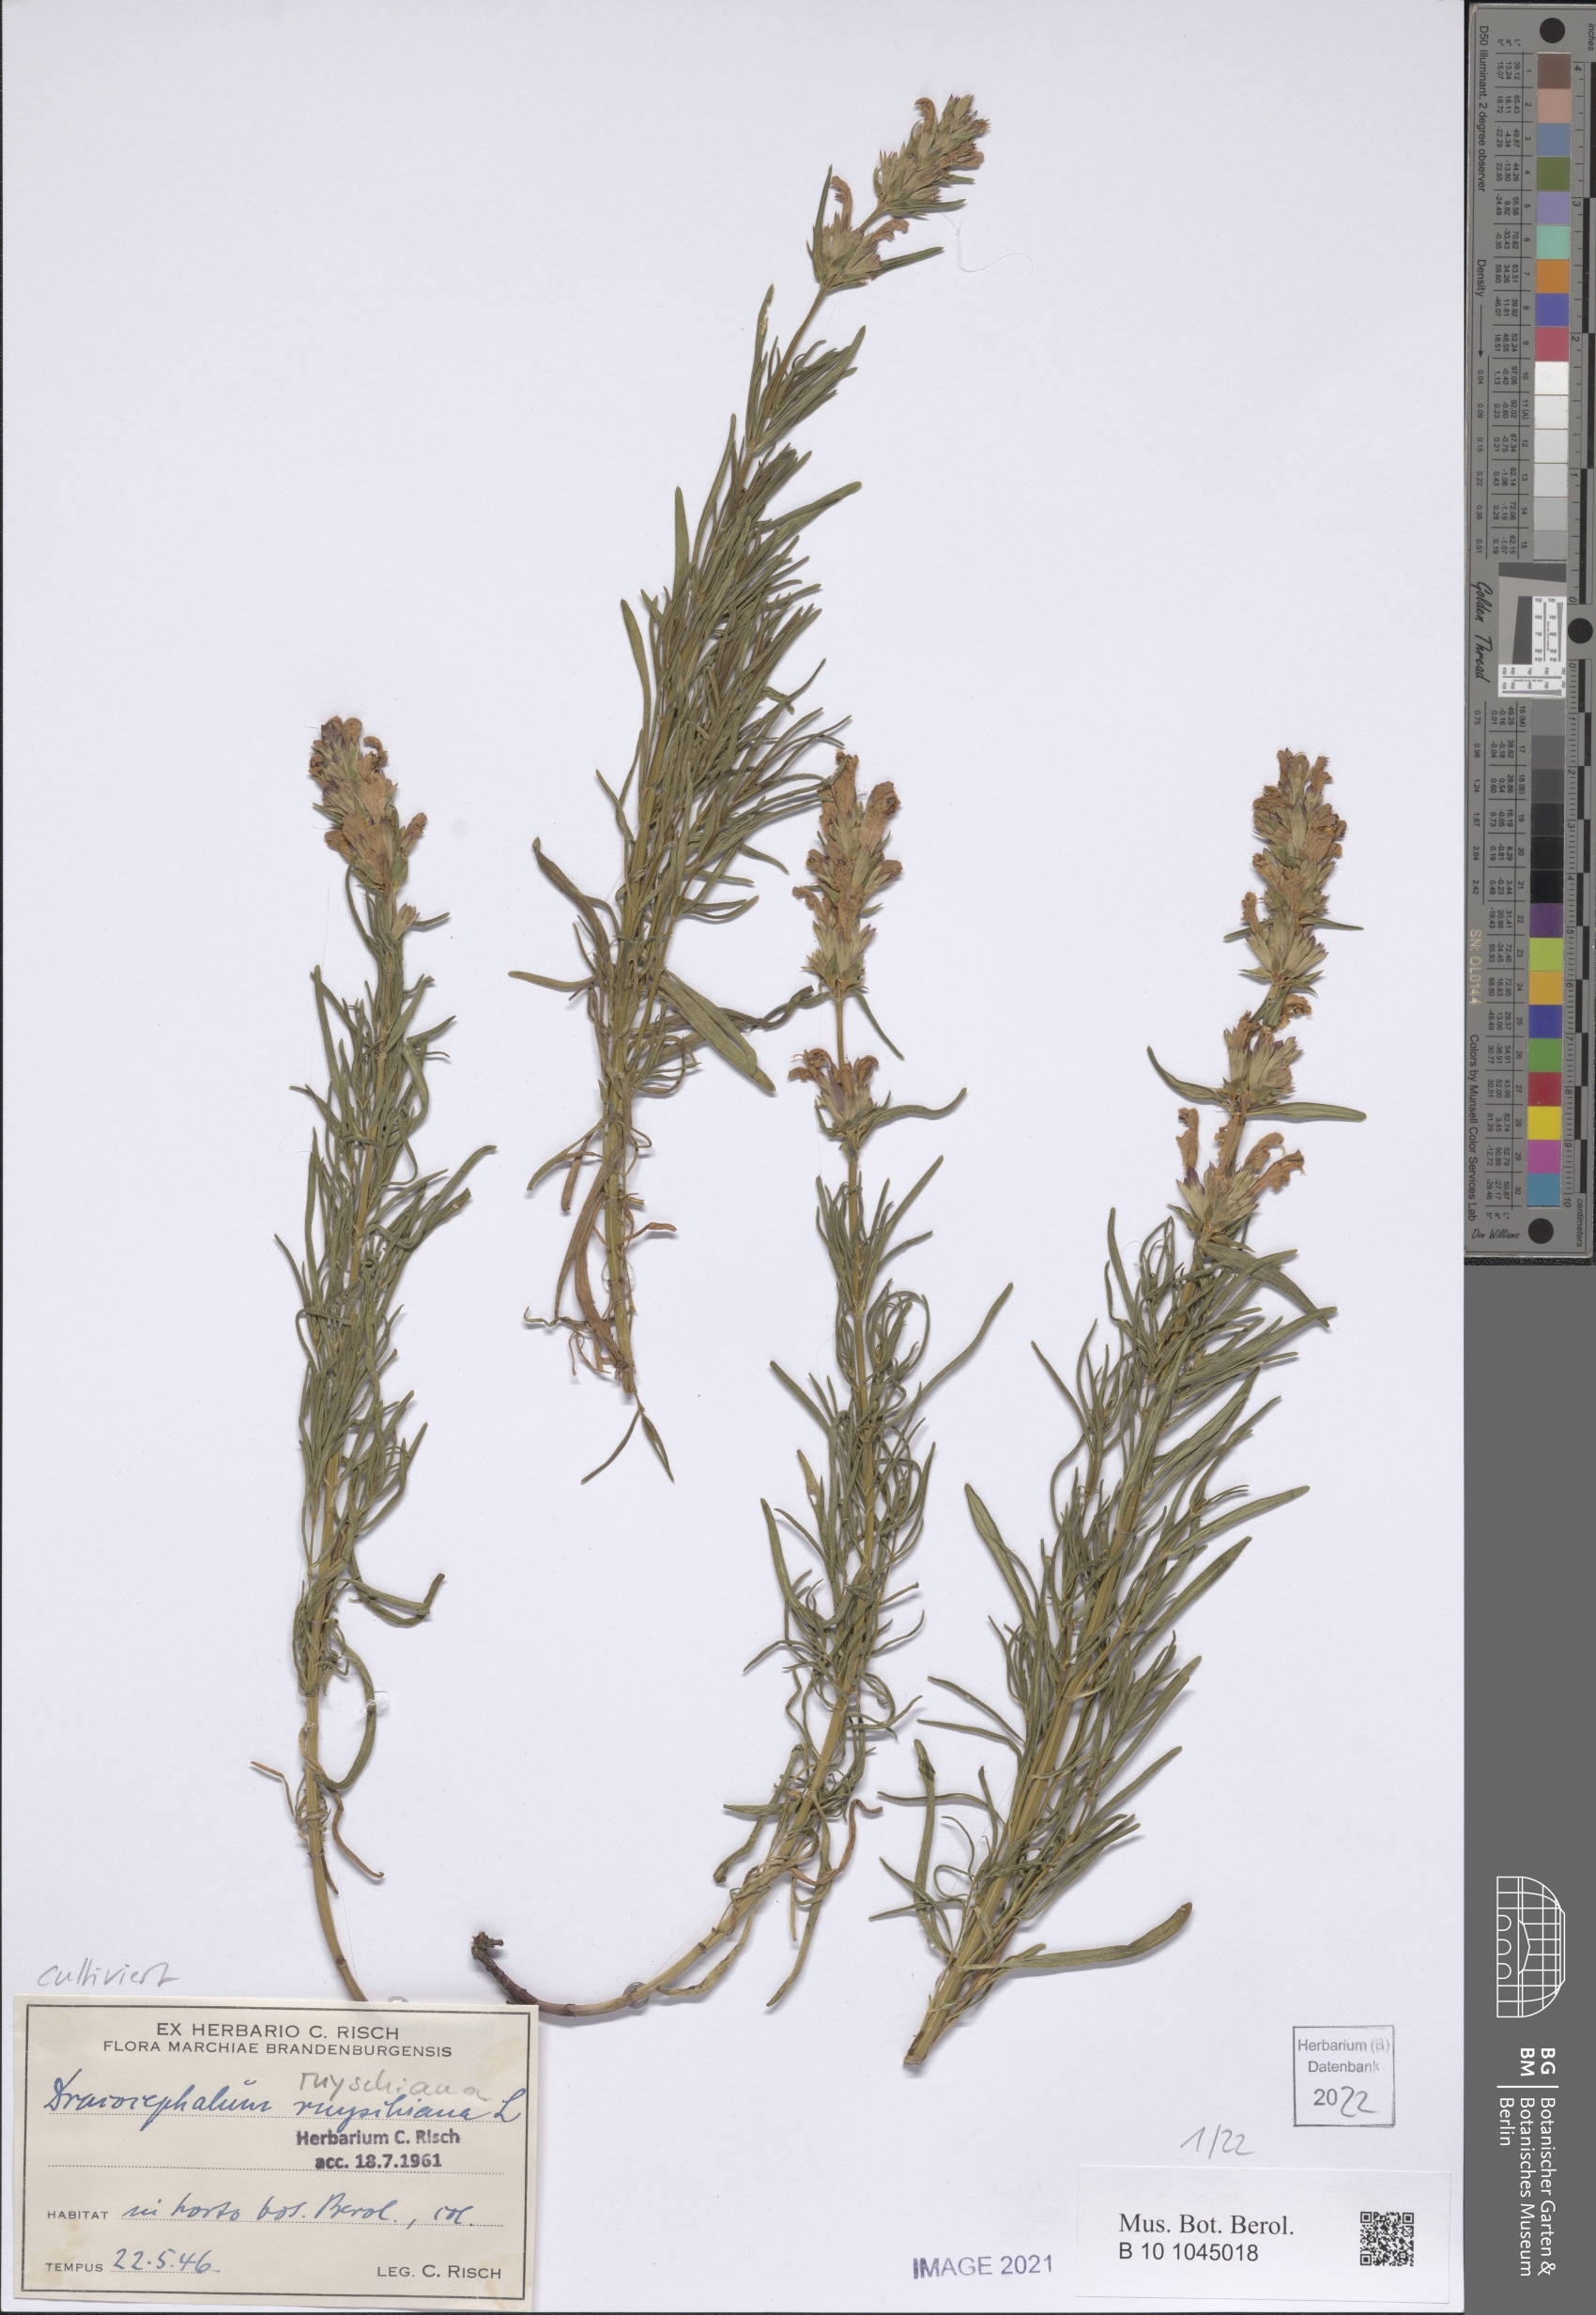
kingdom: Plantae
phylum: Tracheophyta
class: Magnoliopsida
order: Lamiales
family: Lamiaceae
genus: Dracocephalum
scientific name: Dracocephalum ruyschiana
